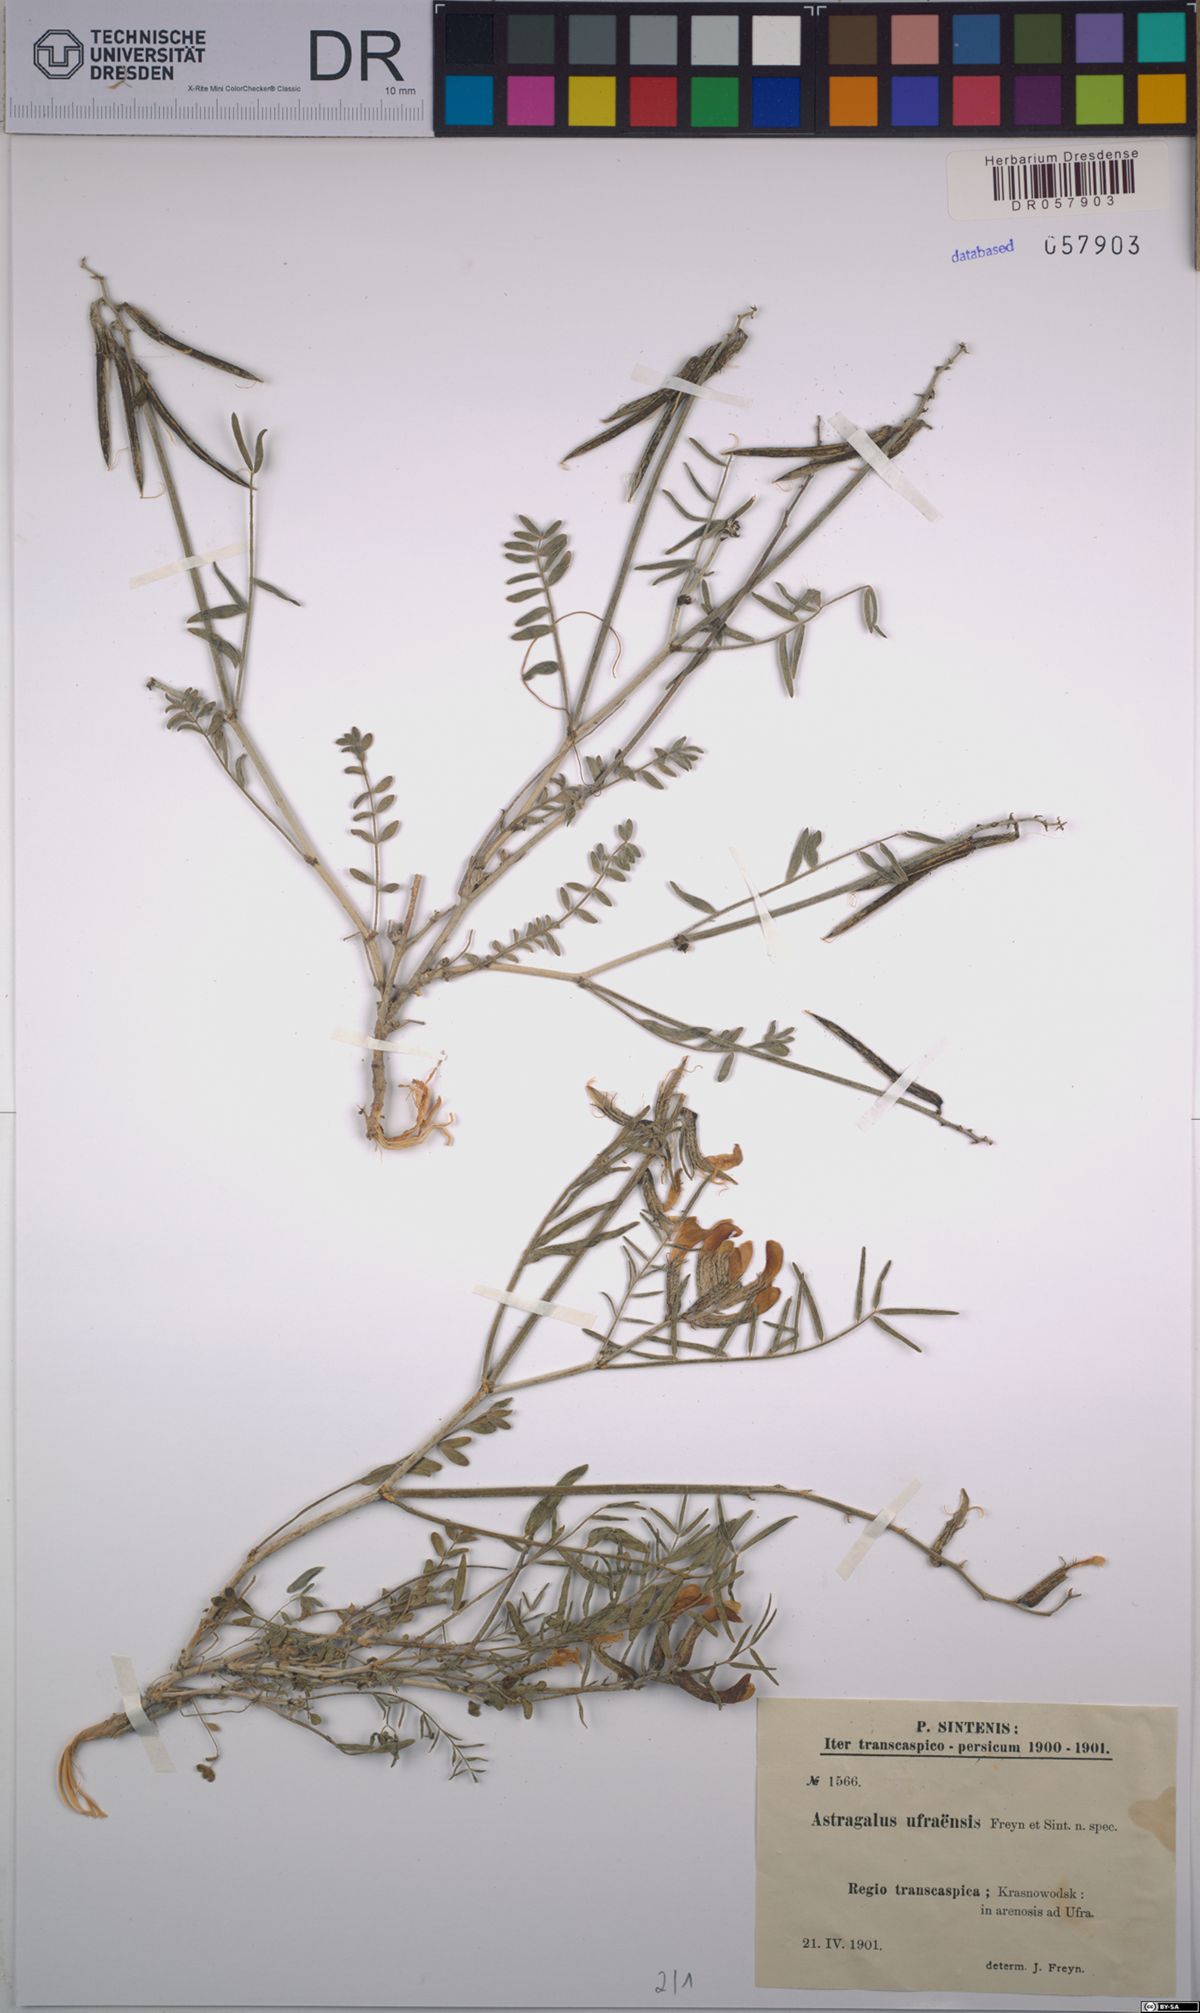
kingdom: Plantae
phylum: Tracheophyta
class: Magnoliopsida
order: Fabales
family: Fabaceae
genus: Astragalus
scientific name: Astragalus juratzkanus
